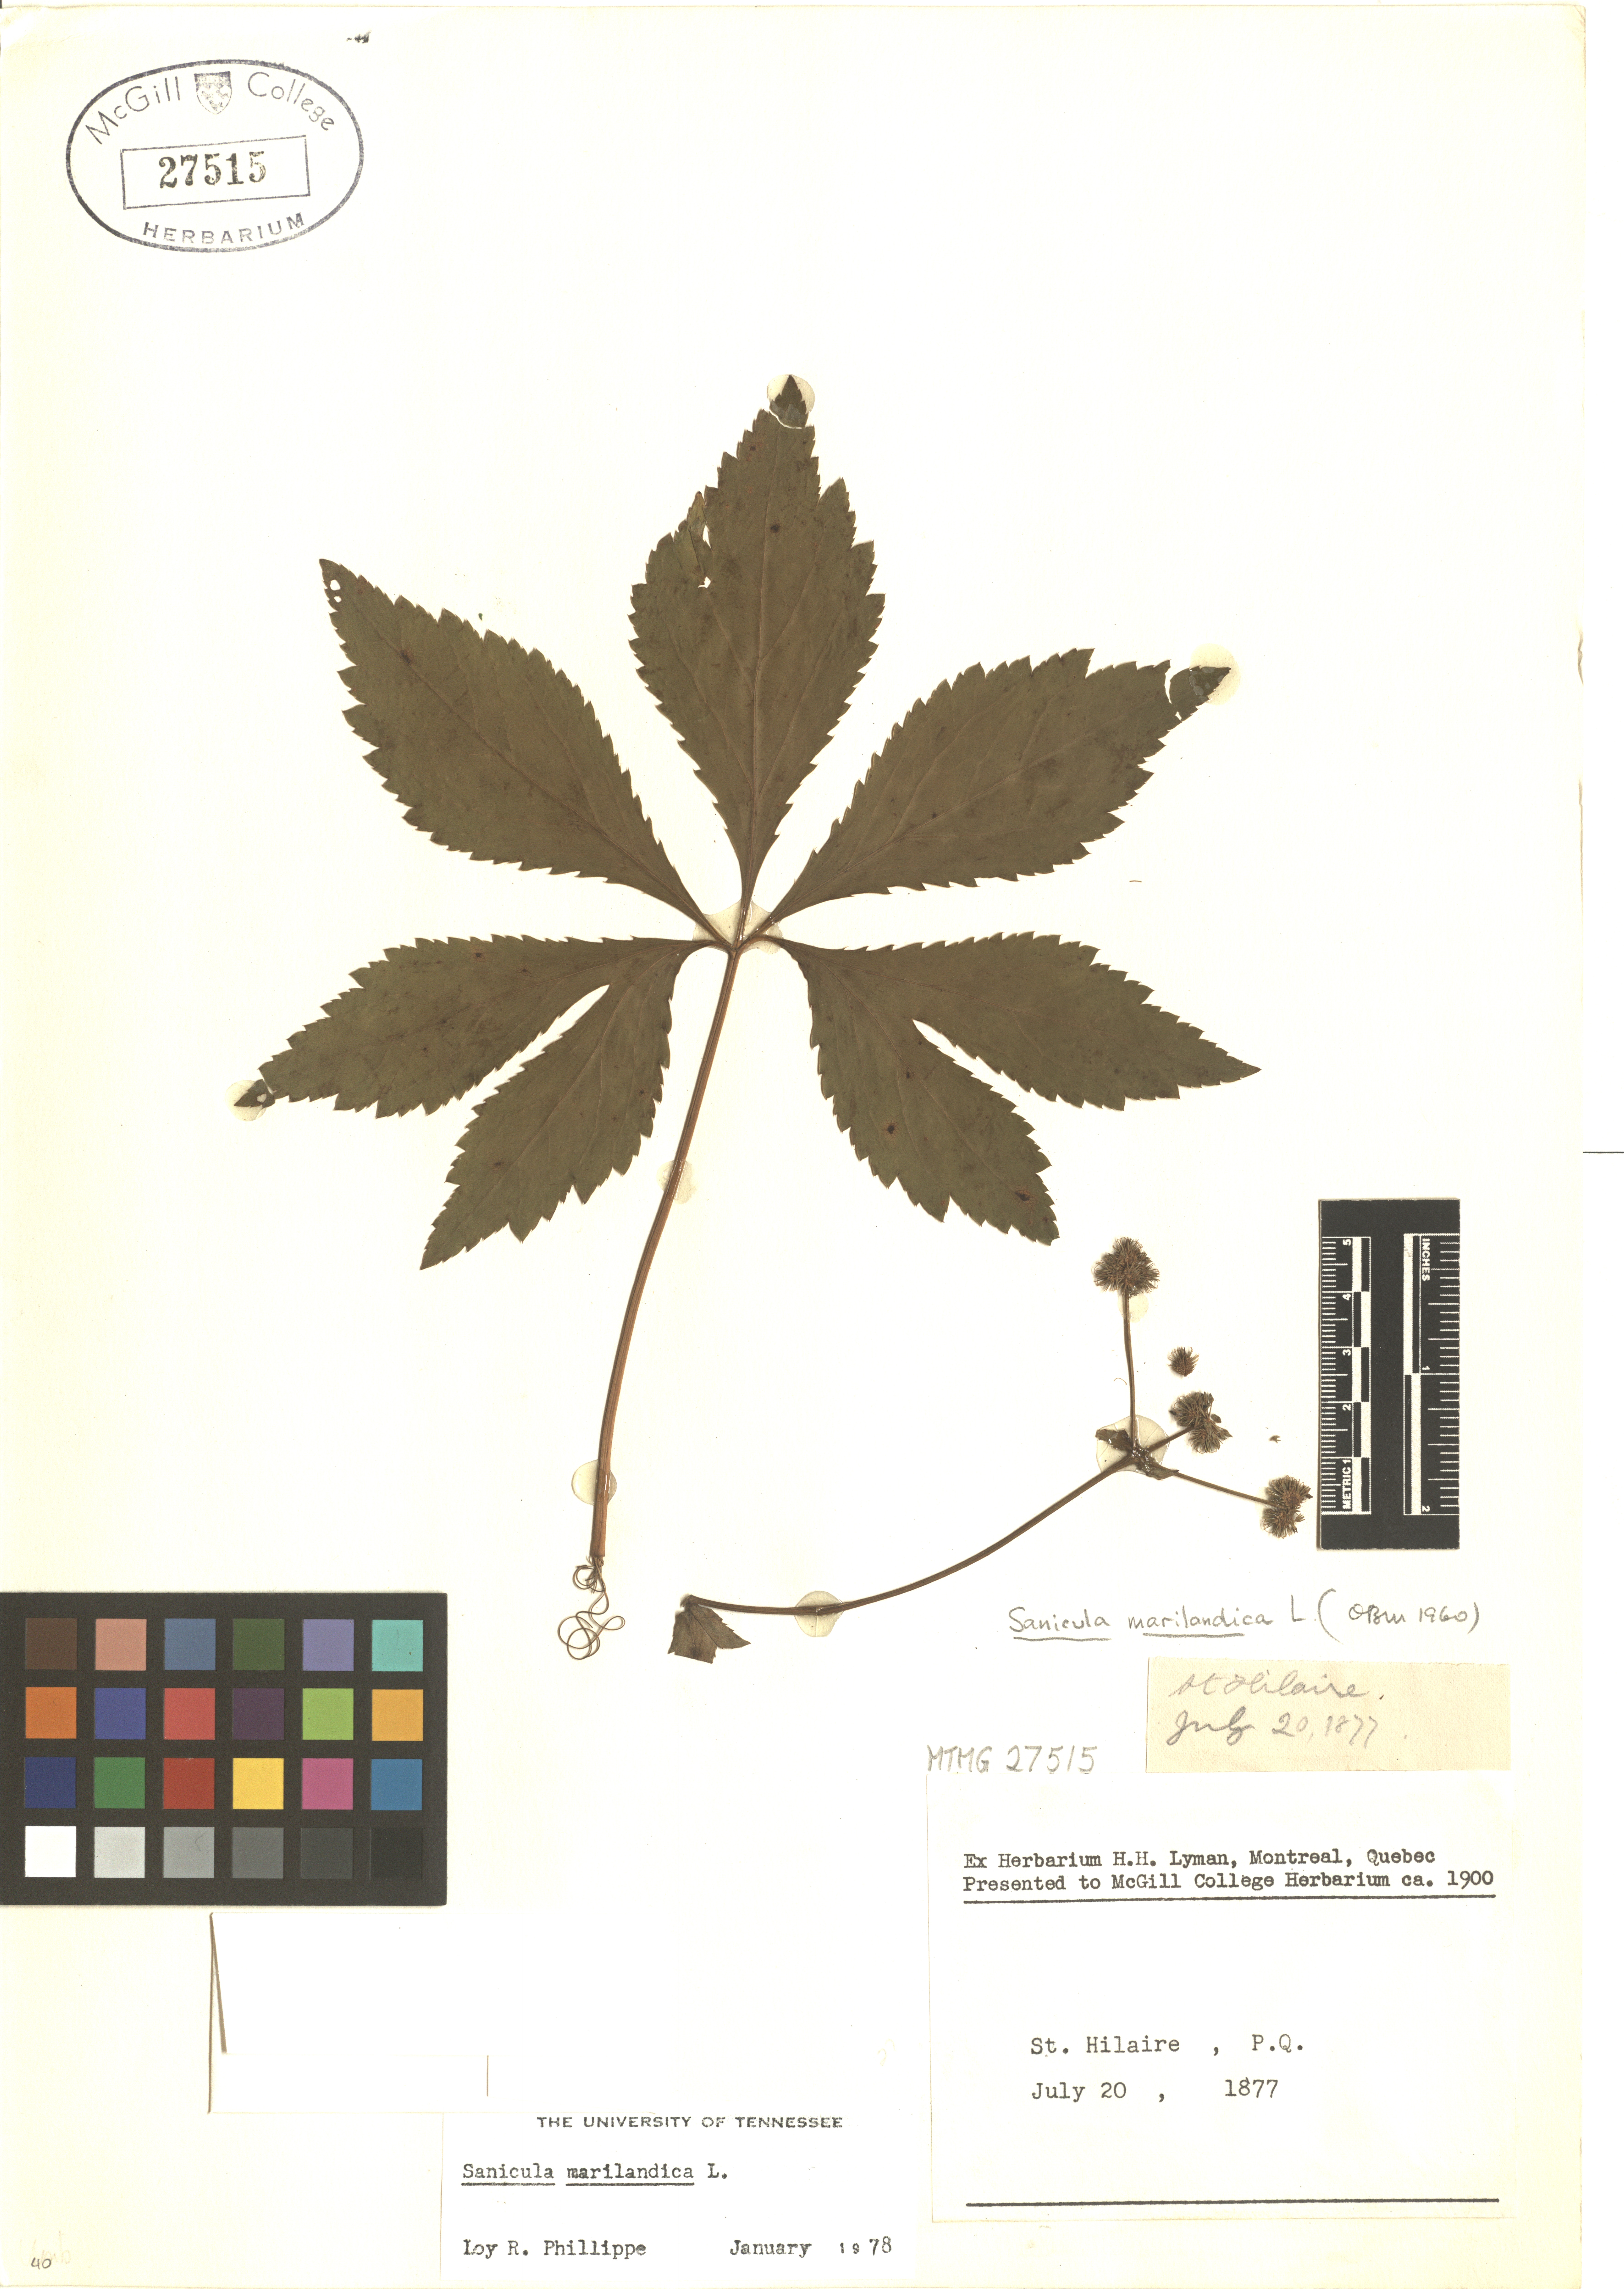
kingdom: Plantae
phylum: Tracheophyta
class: Magnoliopsida
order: Apiales
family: Apiaceae
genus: Sanicula
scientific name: Sanicula marilandica
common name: Black snakeroot
